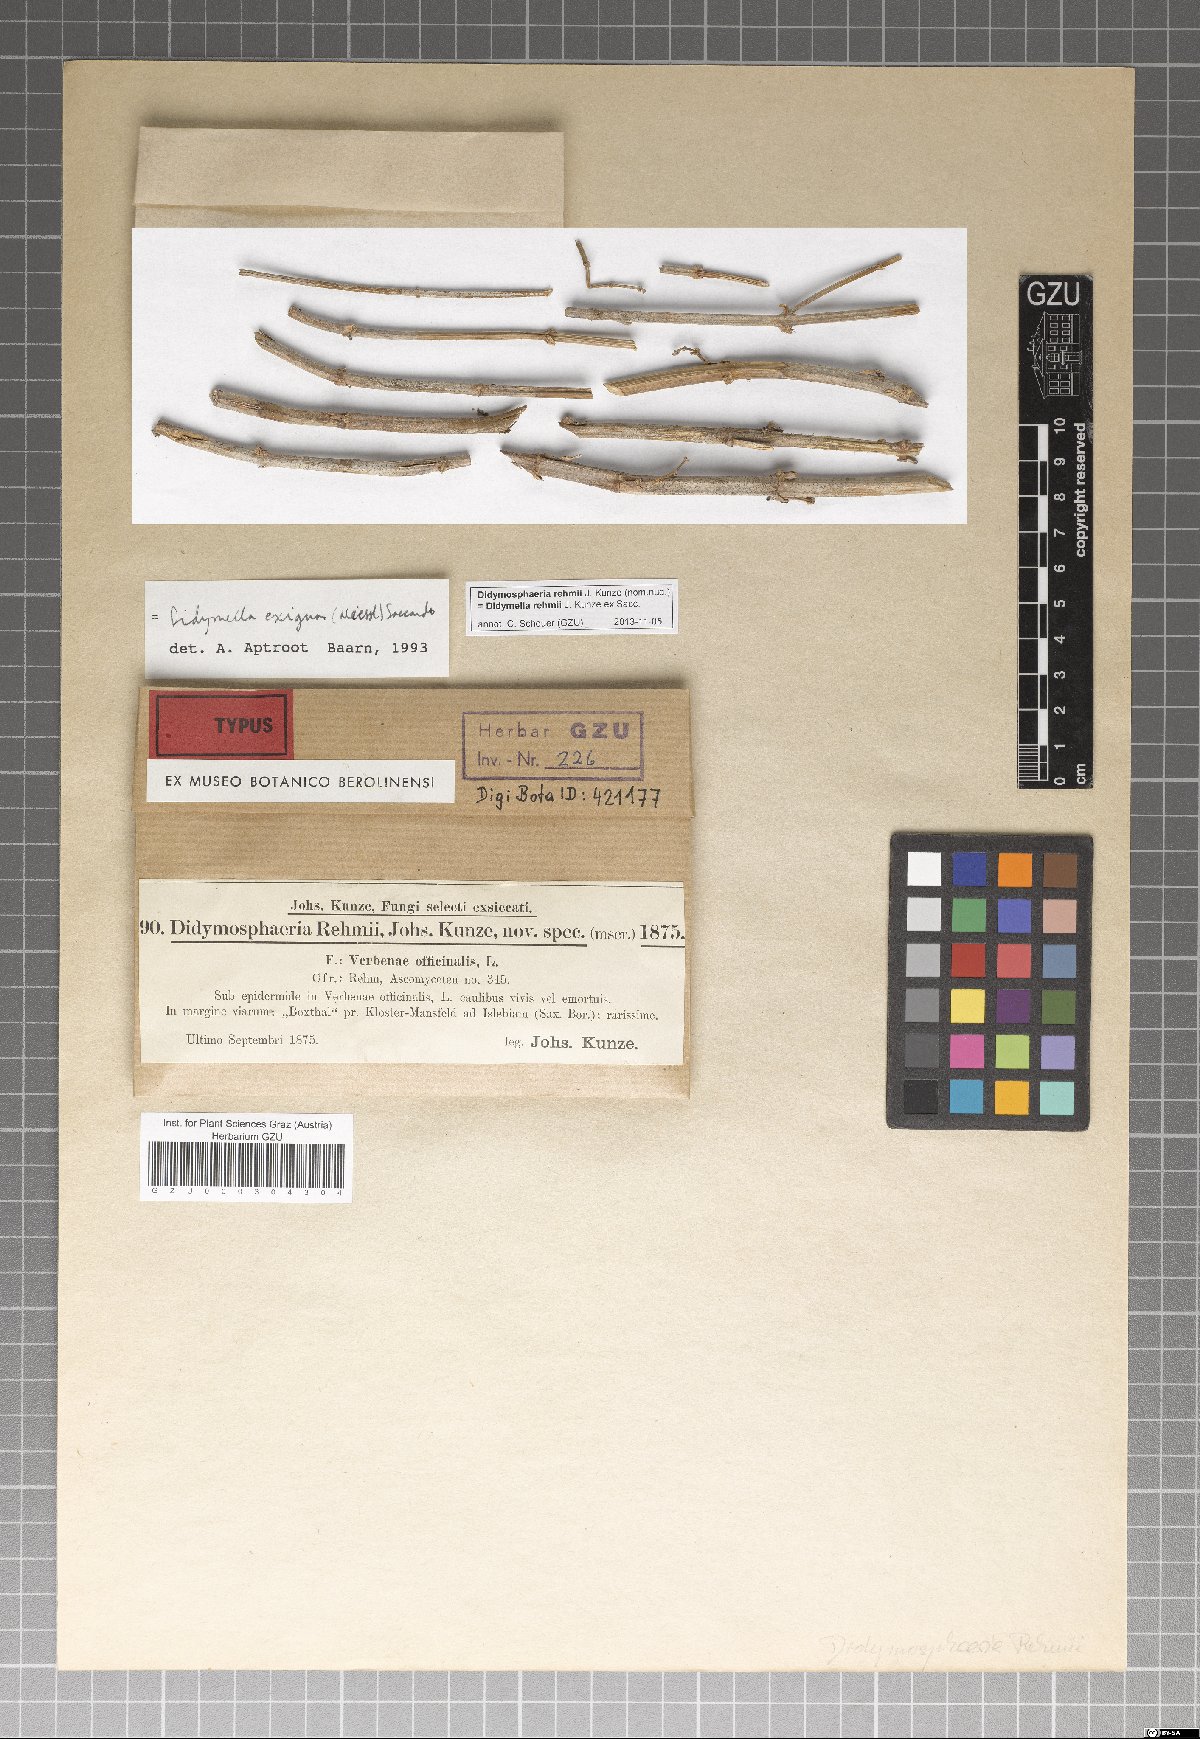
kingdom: Fungi
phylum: Ascomycota
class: Dothideomycetes
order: Pleosporales
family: Didymellaceae
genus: Didymella
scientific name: Didymella rehmii
